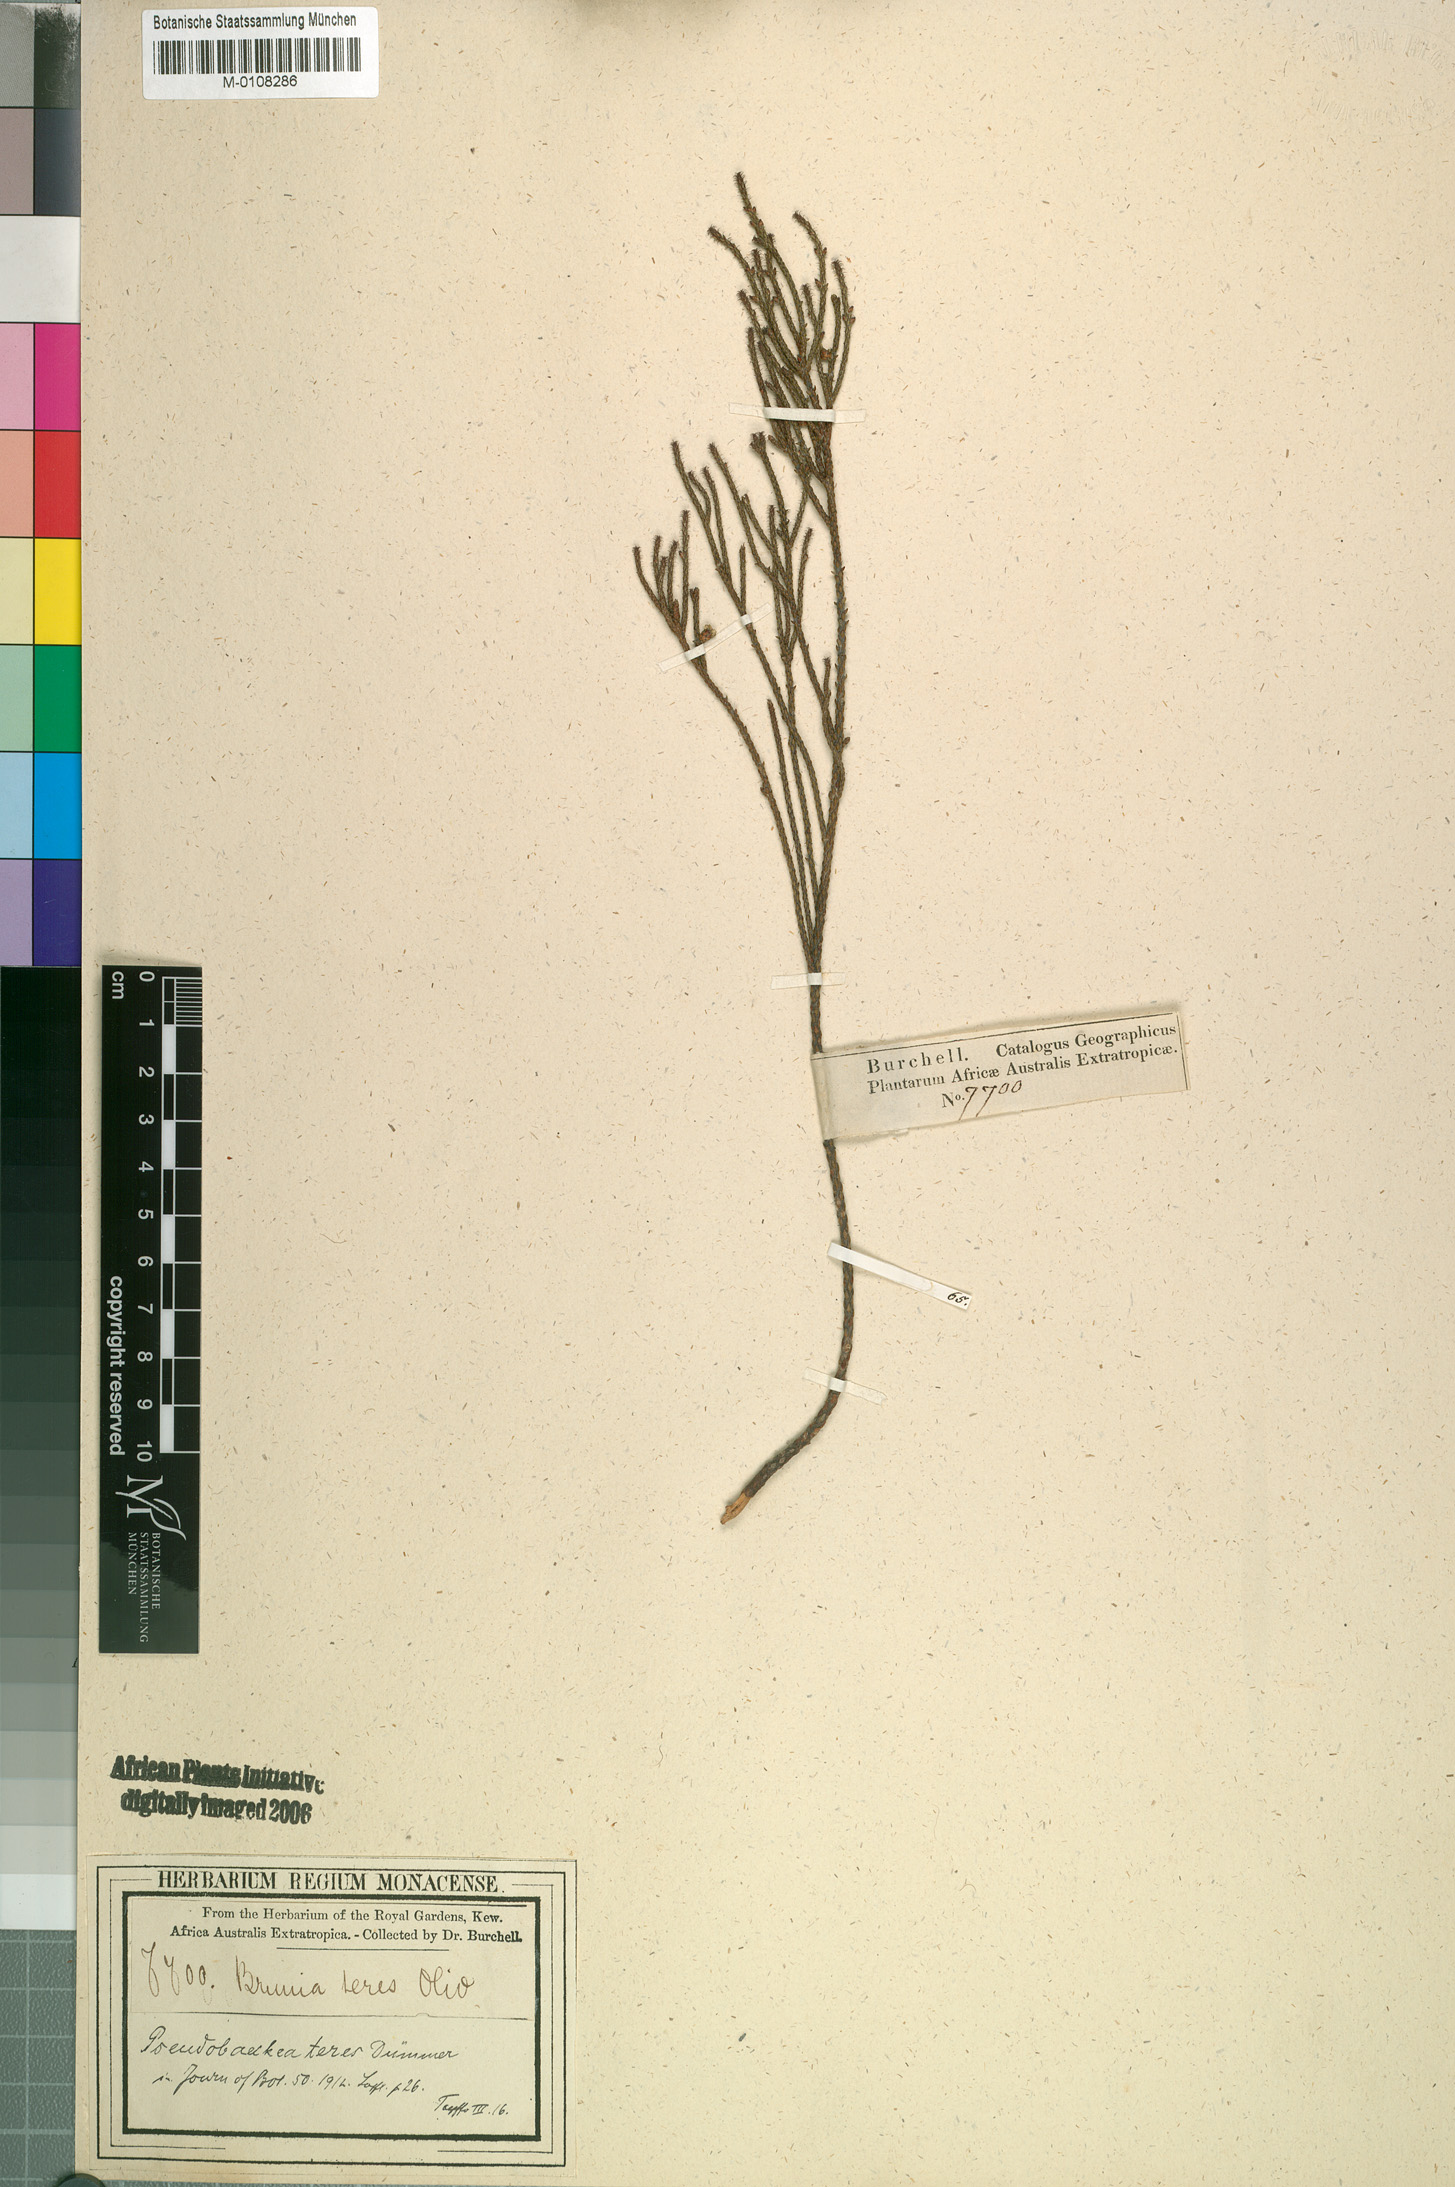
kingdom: Plantae
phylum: Tracheophyta
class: Magnoliopsida
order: Bruniales
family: Bruniaceae
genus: Thamnea
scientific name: Thamnea teres
